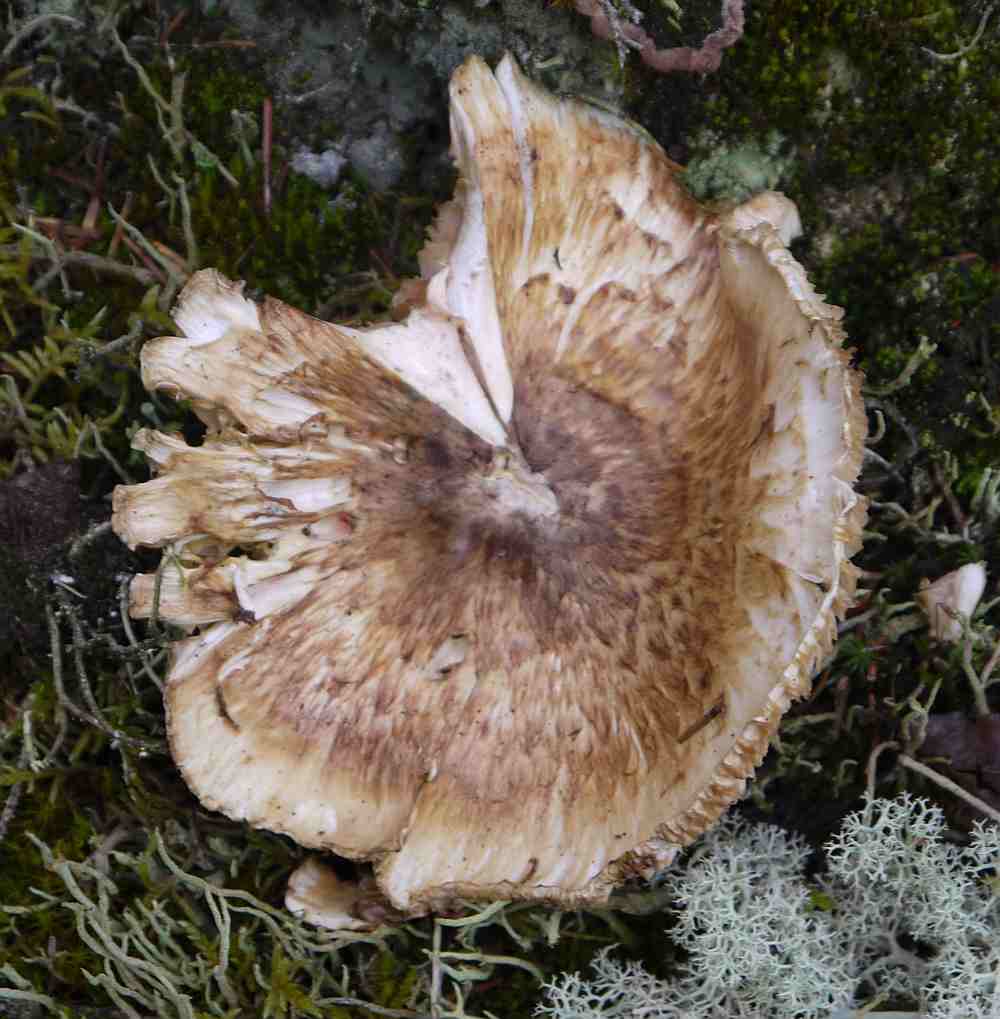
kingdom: Fungi
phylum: Basidiomycota
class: Agaricomycetes
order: Agaricales
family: Tricholomataceae
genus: Tricholoma
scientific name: Tricholoma matsutake
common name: duft-ridderhat
